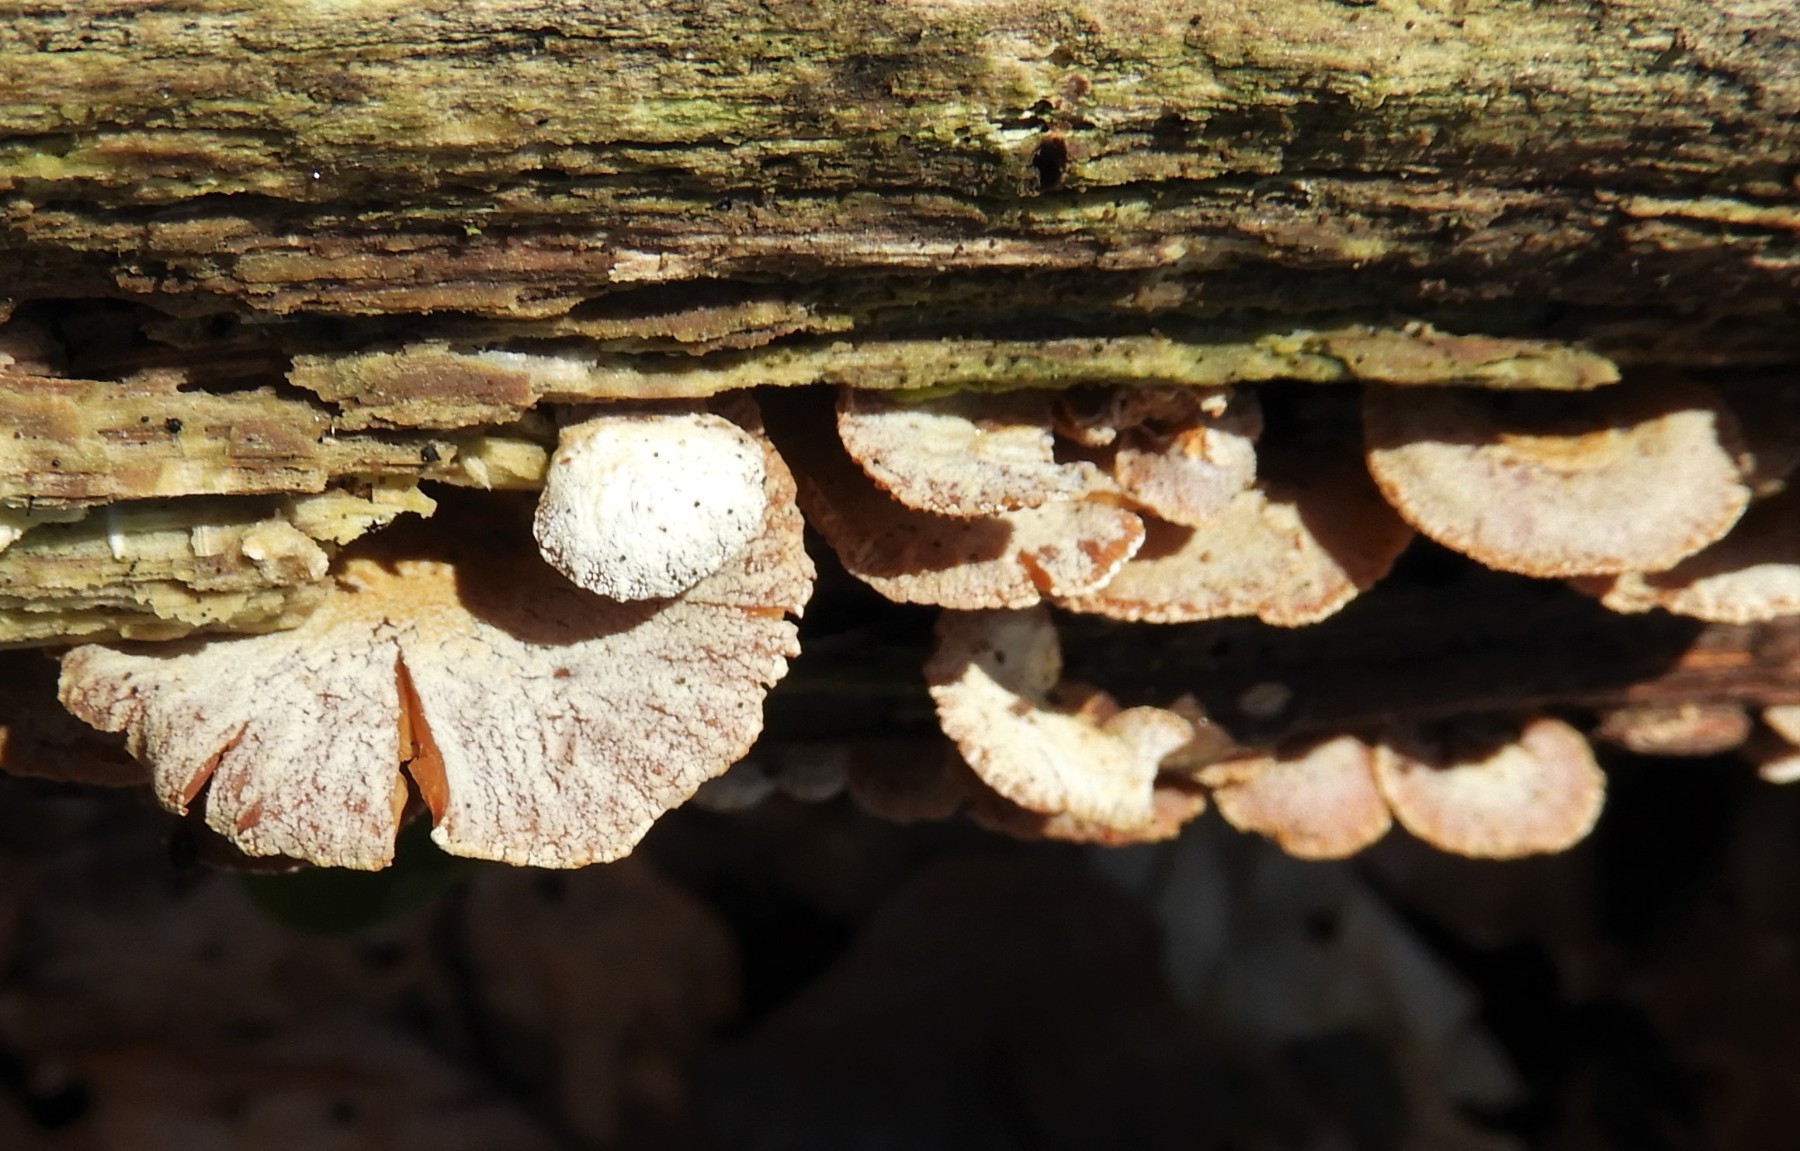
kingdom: Fungi
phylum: Basidiomycota
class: Agaricomycetes
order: Agaricales
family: Mycenaceae
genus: Panellus
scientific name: Panellus stipticus
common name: kliddet epaulethat
